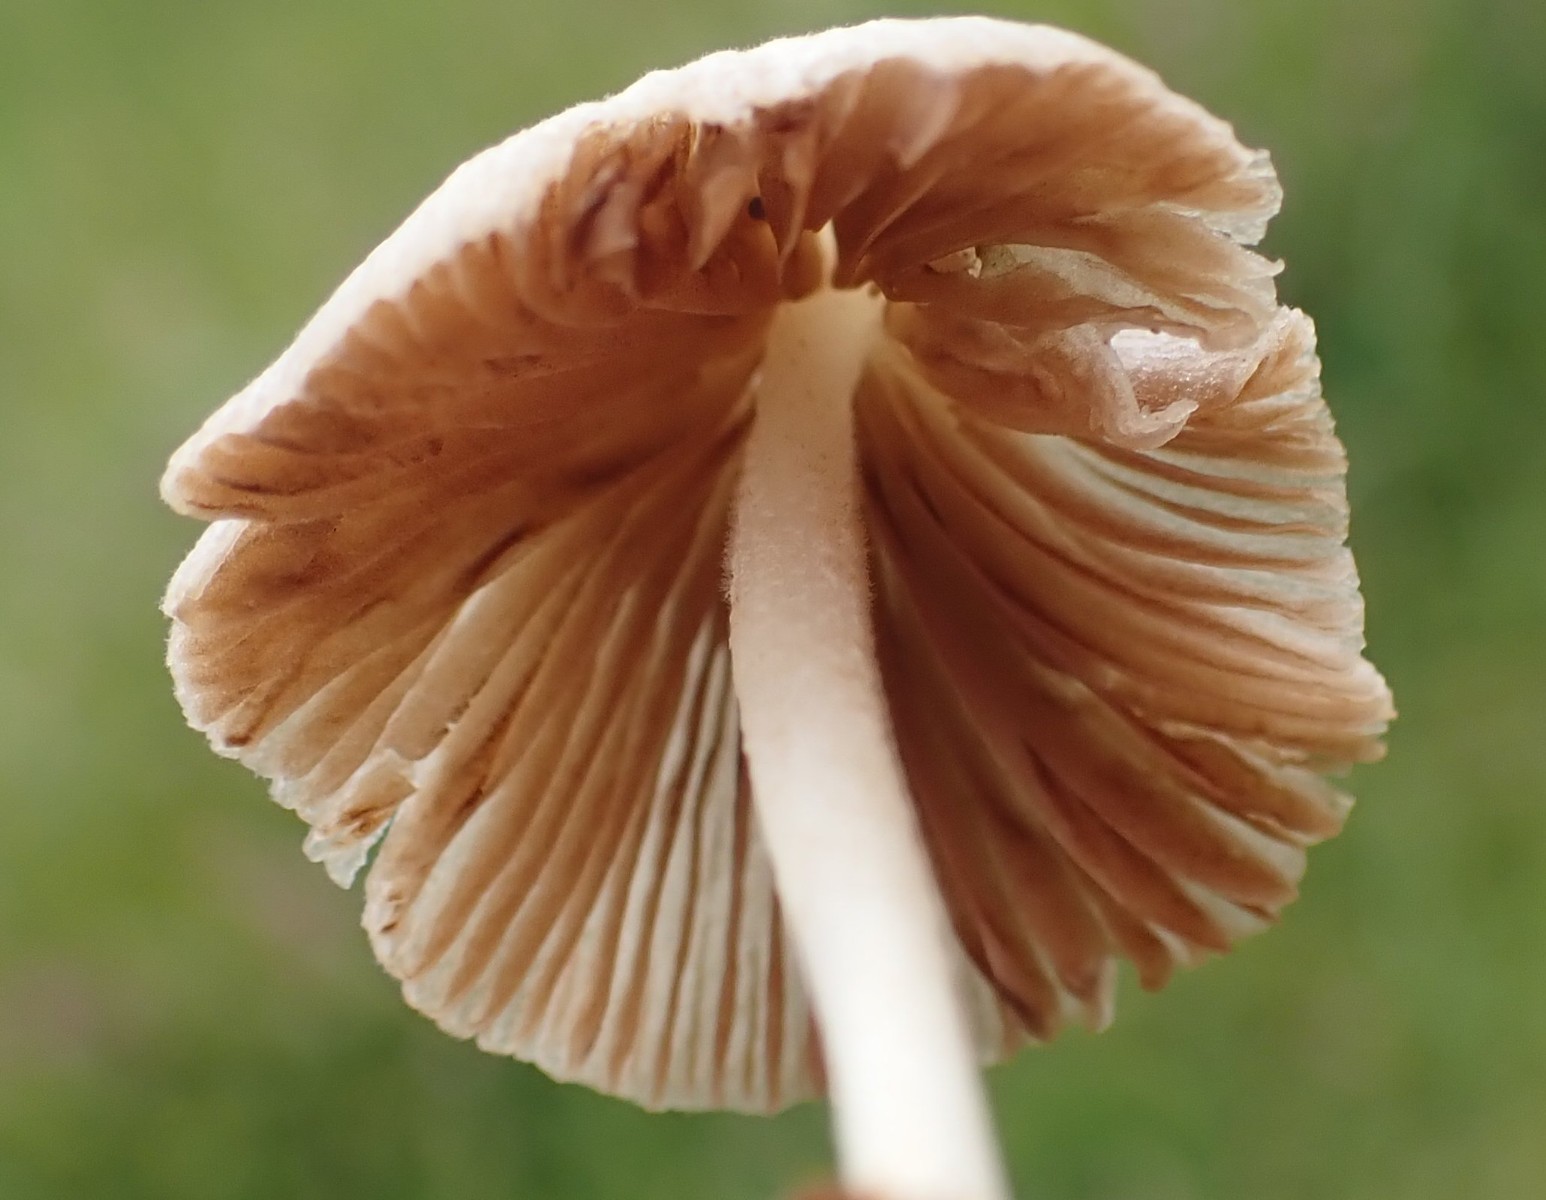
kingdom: Fungi
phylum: Basidiomycota
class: Agaricomycetes
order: Agaricales
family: Bolbitiaceae
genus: Conocybe
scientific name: Conocybe apala
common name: mælkehvid keglehat
